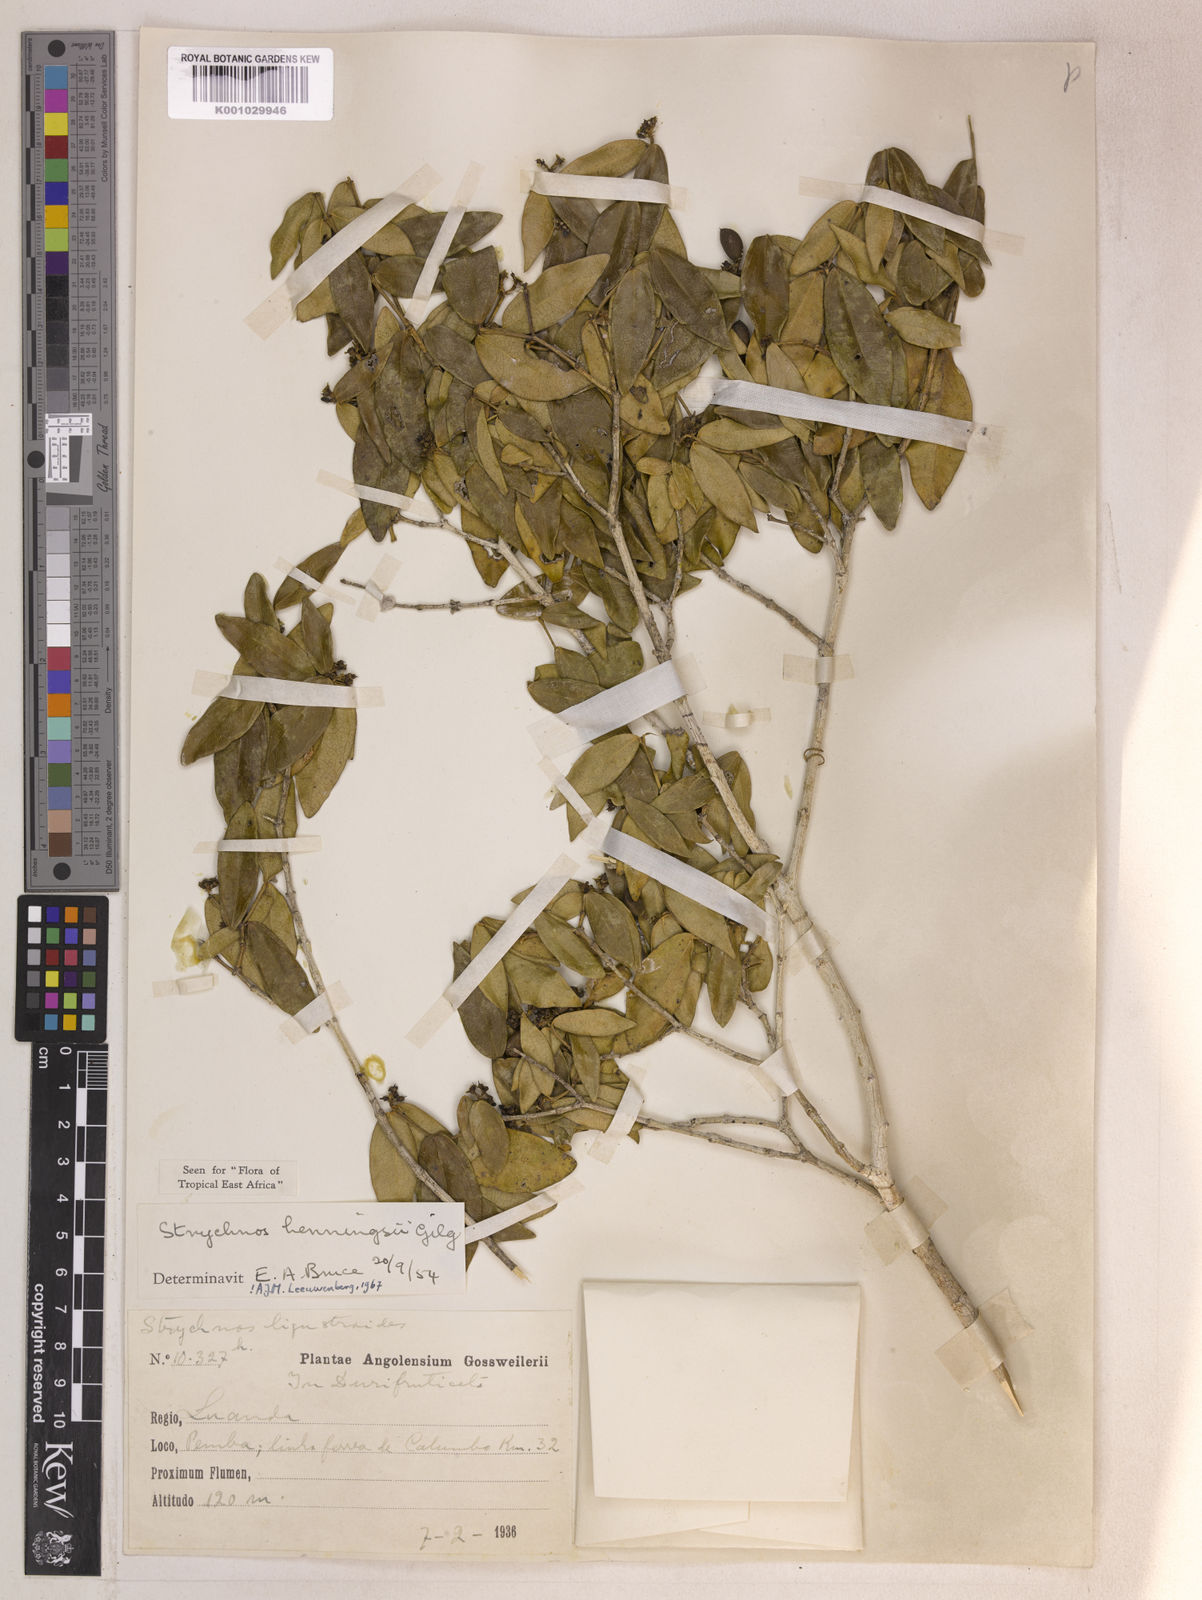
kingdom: Plantae
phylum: Tracheophyta
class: Magnoliopsida
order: Gentianales
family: Loganiaceae
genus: Strychnos
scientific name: Strychnos henningsii
